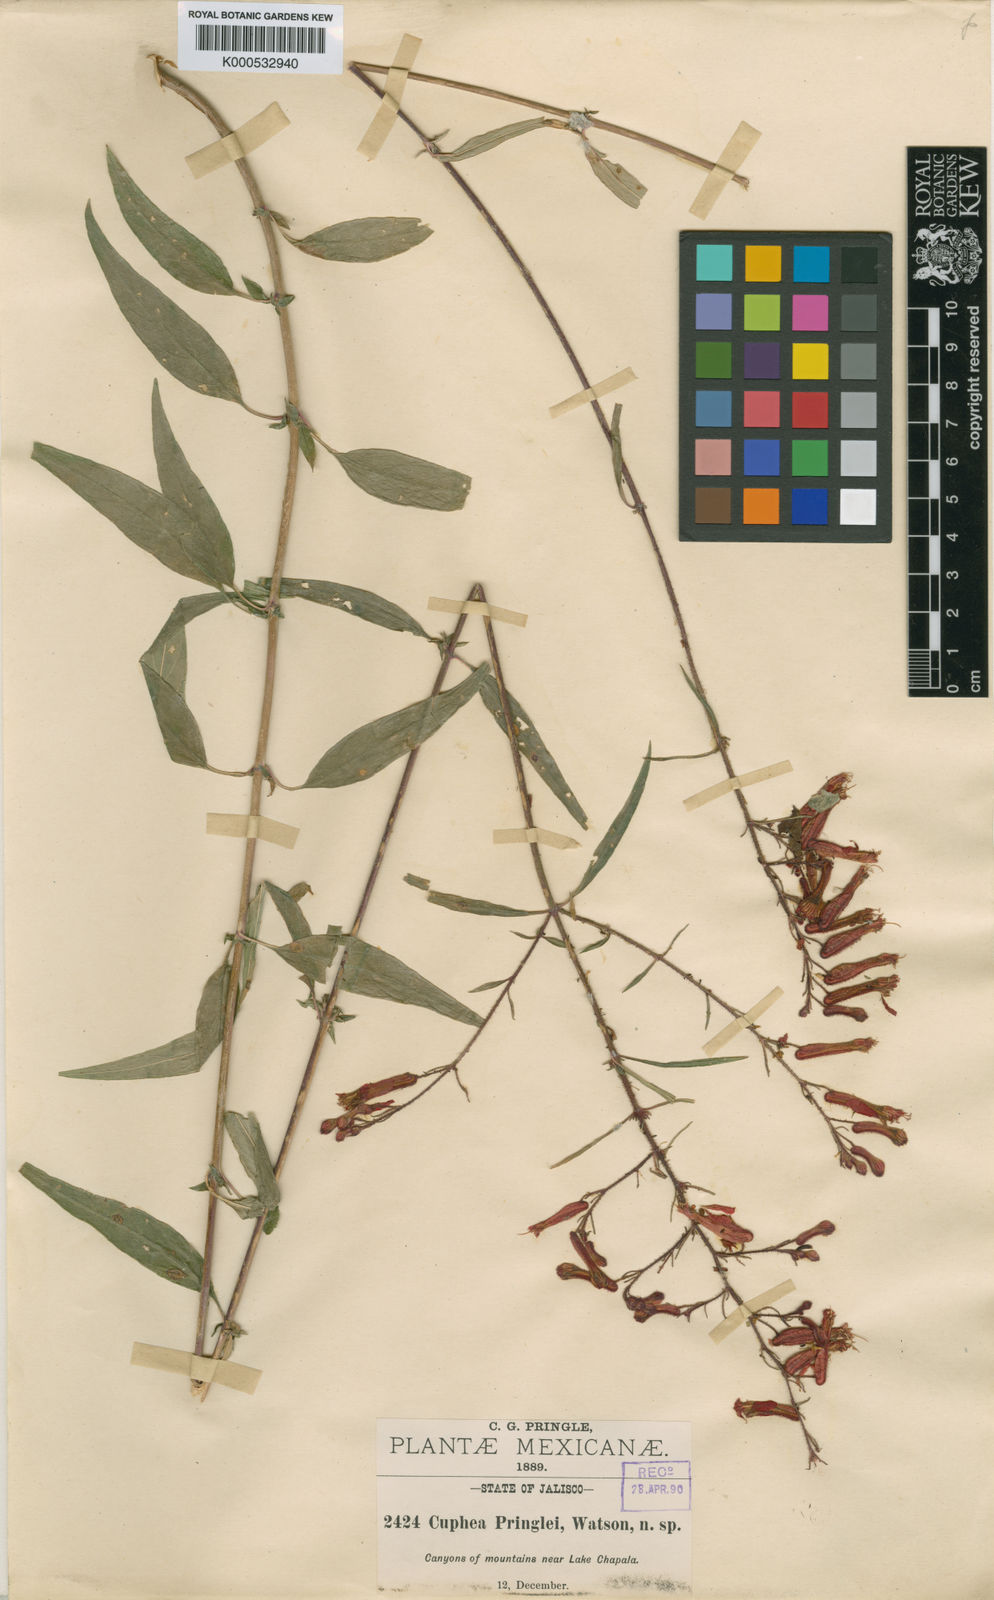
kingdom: Plantae
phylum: Tracheophyta
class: Magnoliopsida
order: Myrtales
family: Lythraceae
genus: Cuphea
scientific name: Cuphea hookeriana
